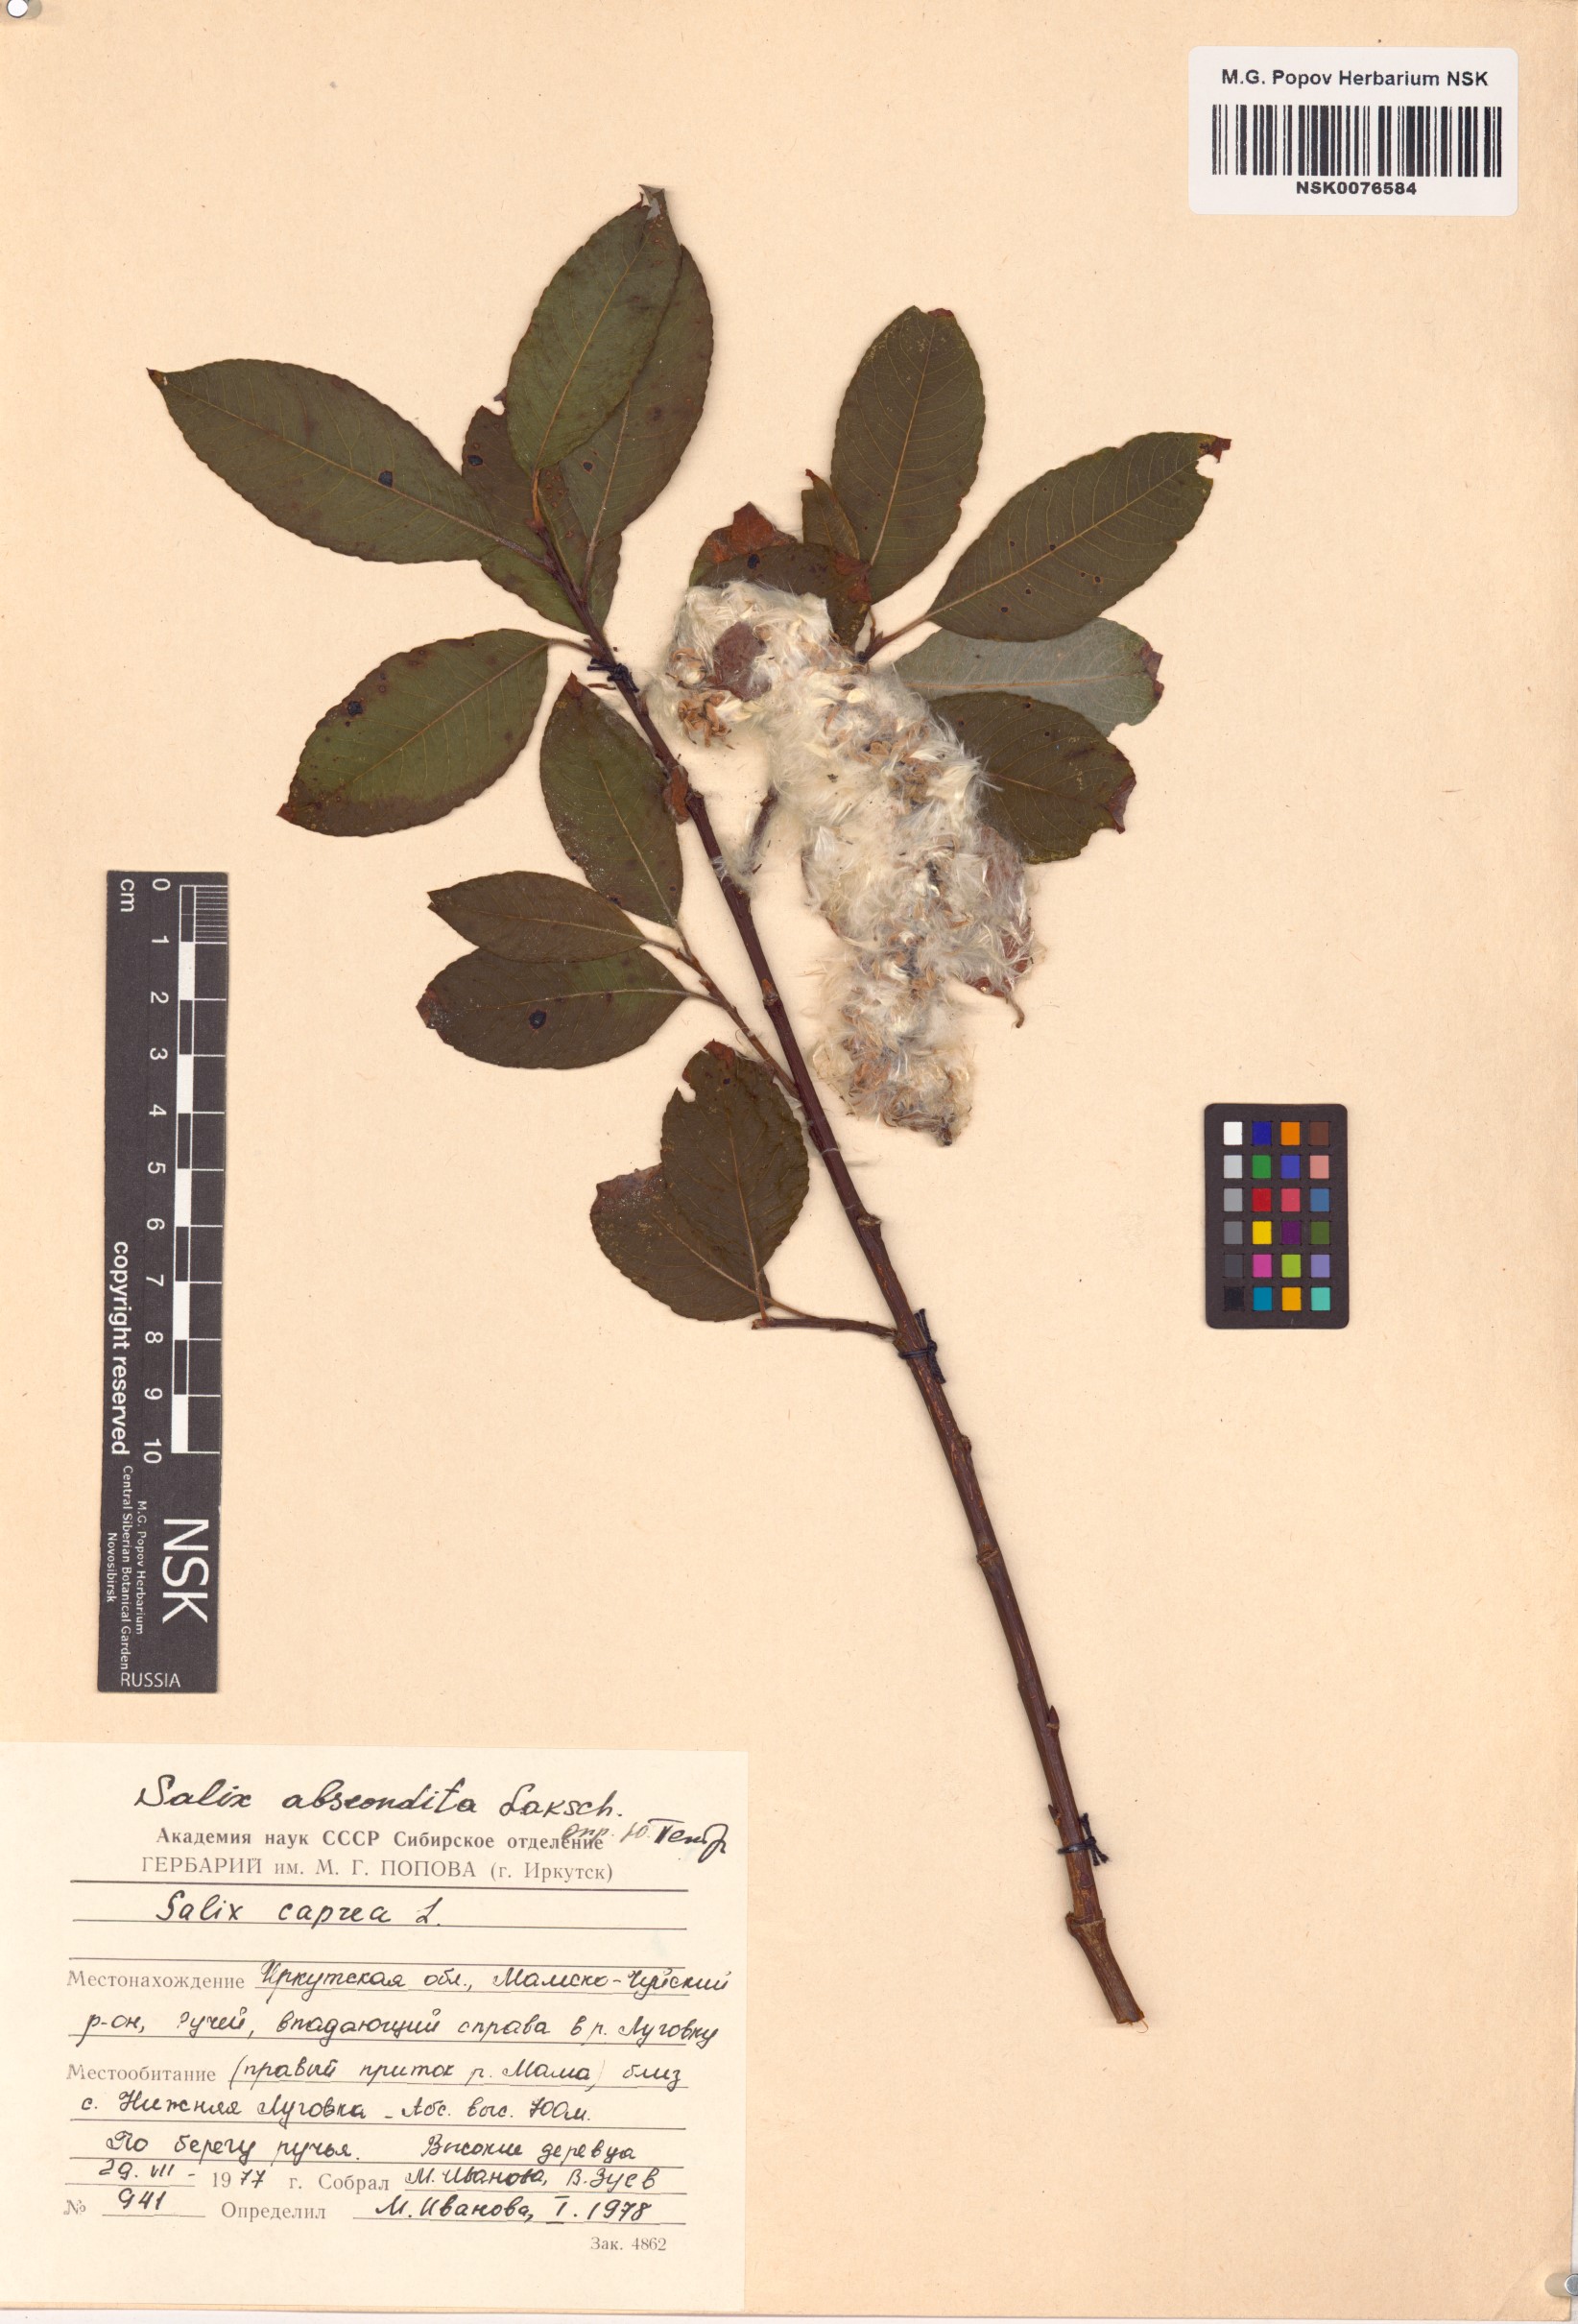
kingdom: Plantae
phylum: Tracheophyta
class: Magnoliopsida
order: Malpighiales
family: Salicaceae
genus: Salix
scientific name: Salix abscondita
